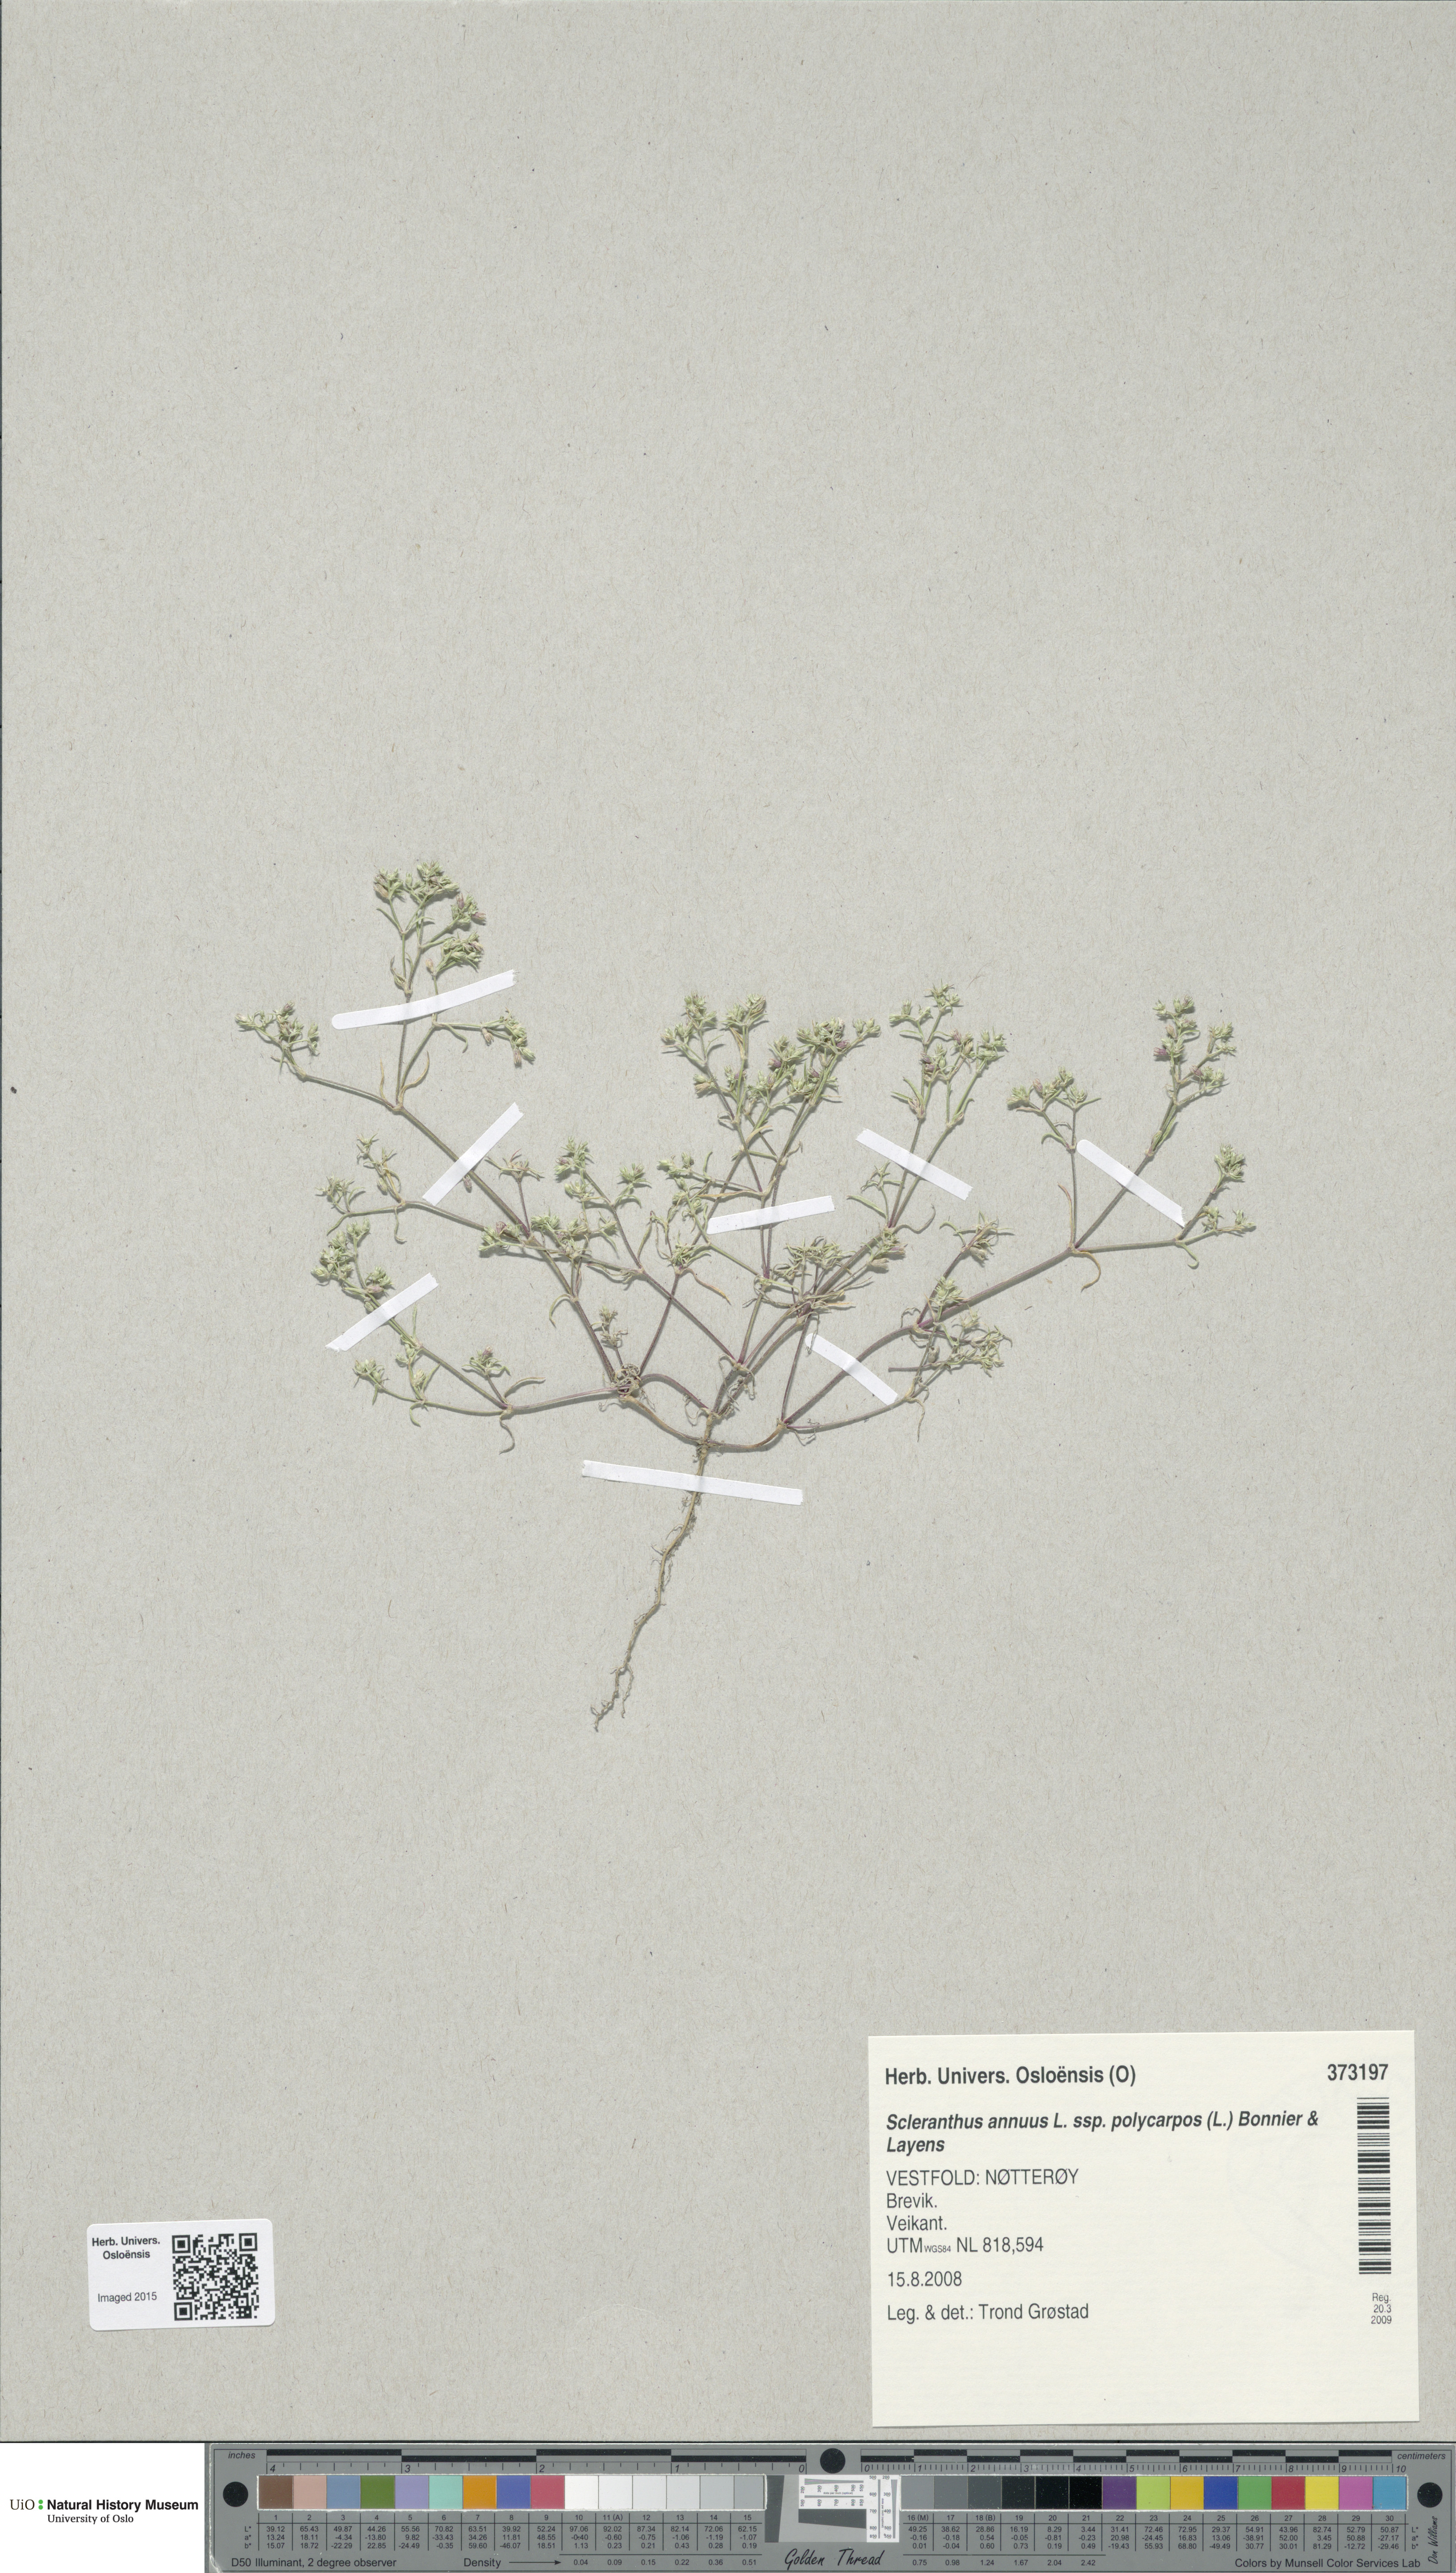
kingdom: Plantae
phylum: Tracheophyta
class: Magnoliopsida
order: Caryophyllales
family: Caryophyllaceae
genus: Scleranthus
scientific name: Scleranthus annuus
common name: Annual knawel
